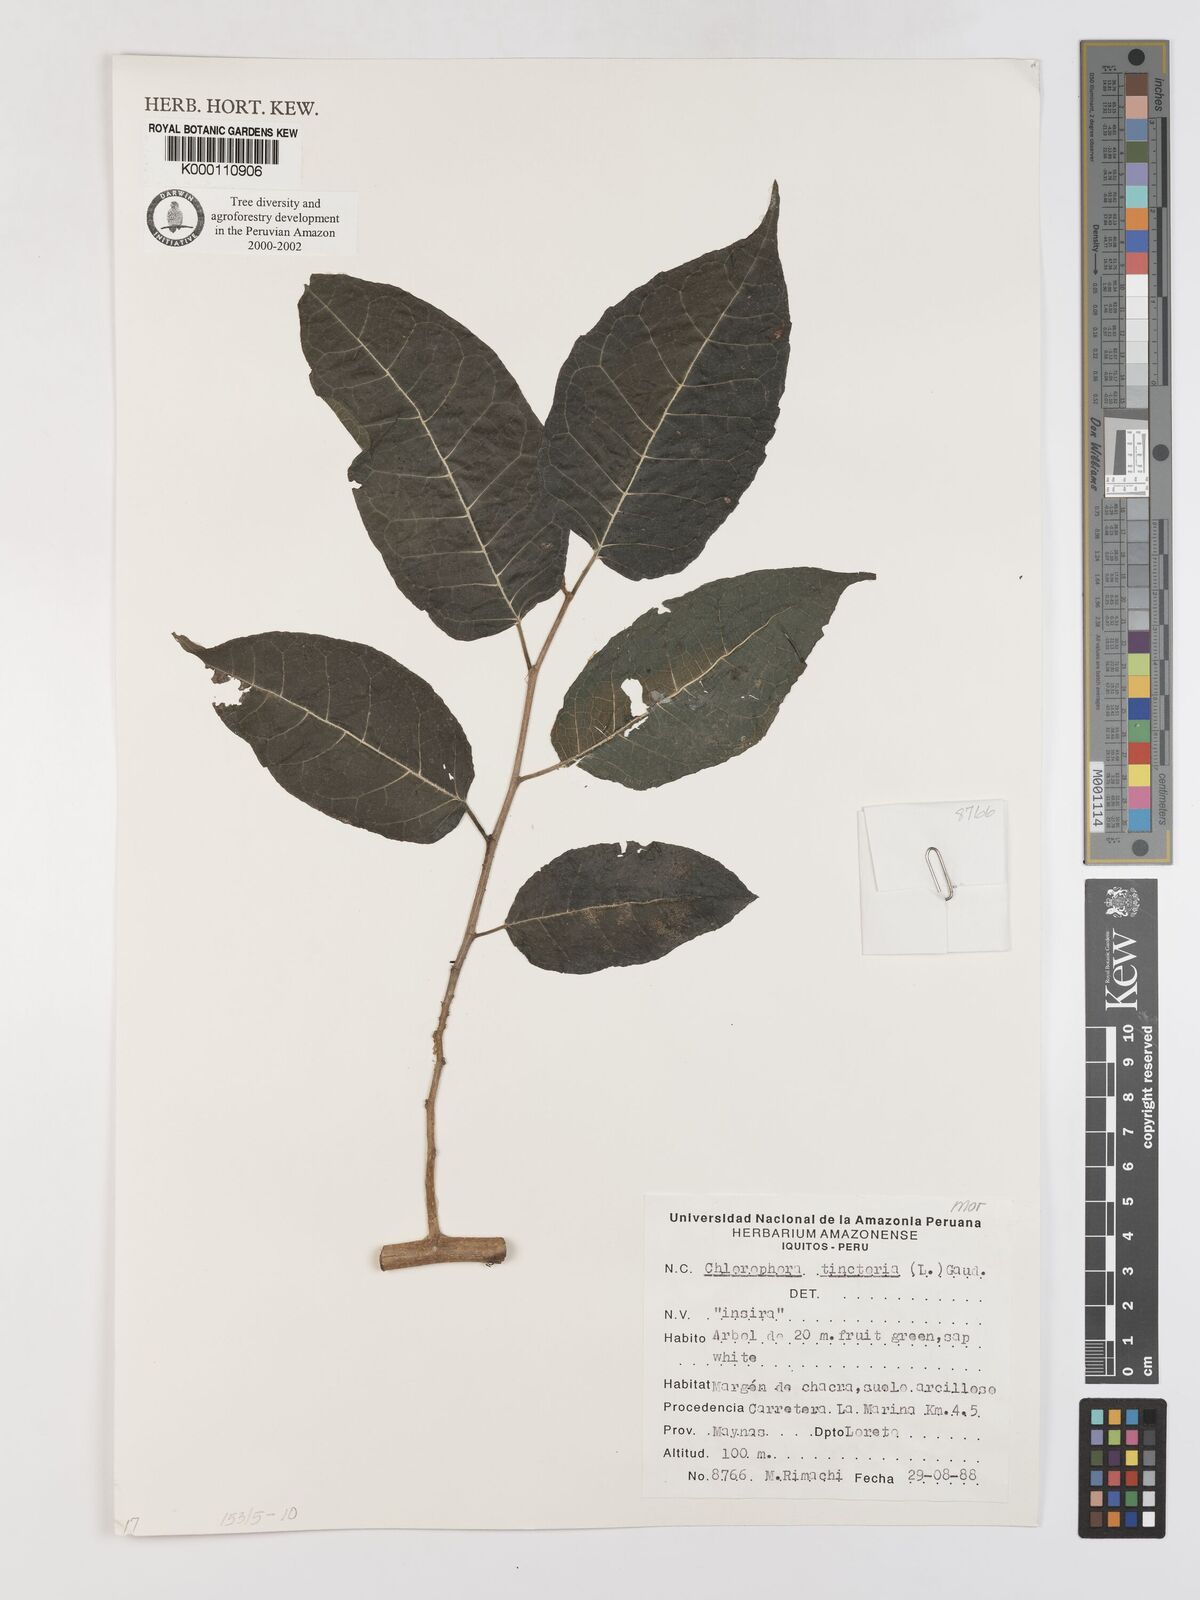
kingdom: Plantae
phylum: Tracheophyta
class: Magnoliopsida
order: Rosales
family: Moraceae
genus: Maclura
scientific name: Maclura tinctoria
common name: Old fustic
